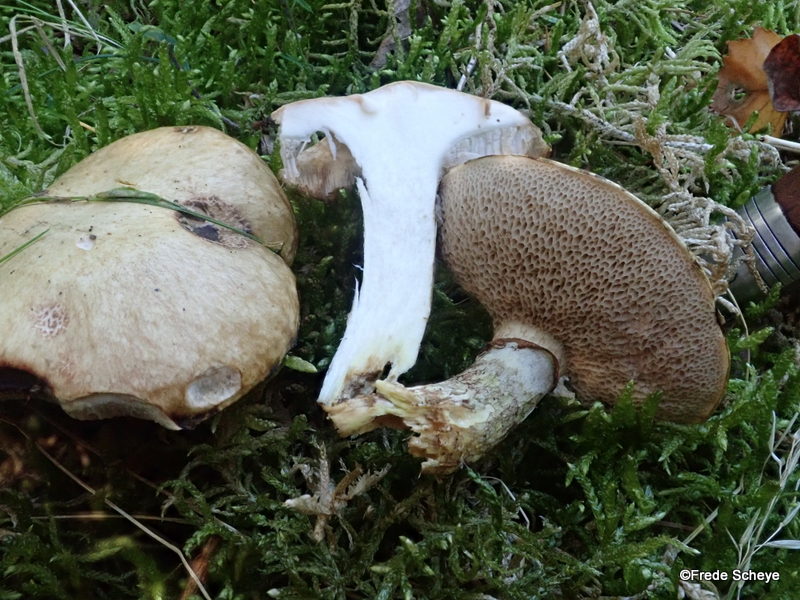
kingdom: Fungi
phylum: Basidiomycota
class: Agaricomycetes
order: Boletales
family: Suillaceae
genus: Suillus
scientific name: Suillus grevillei
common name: lærke-slimrørhat
